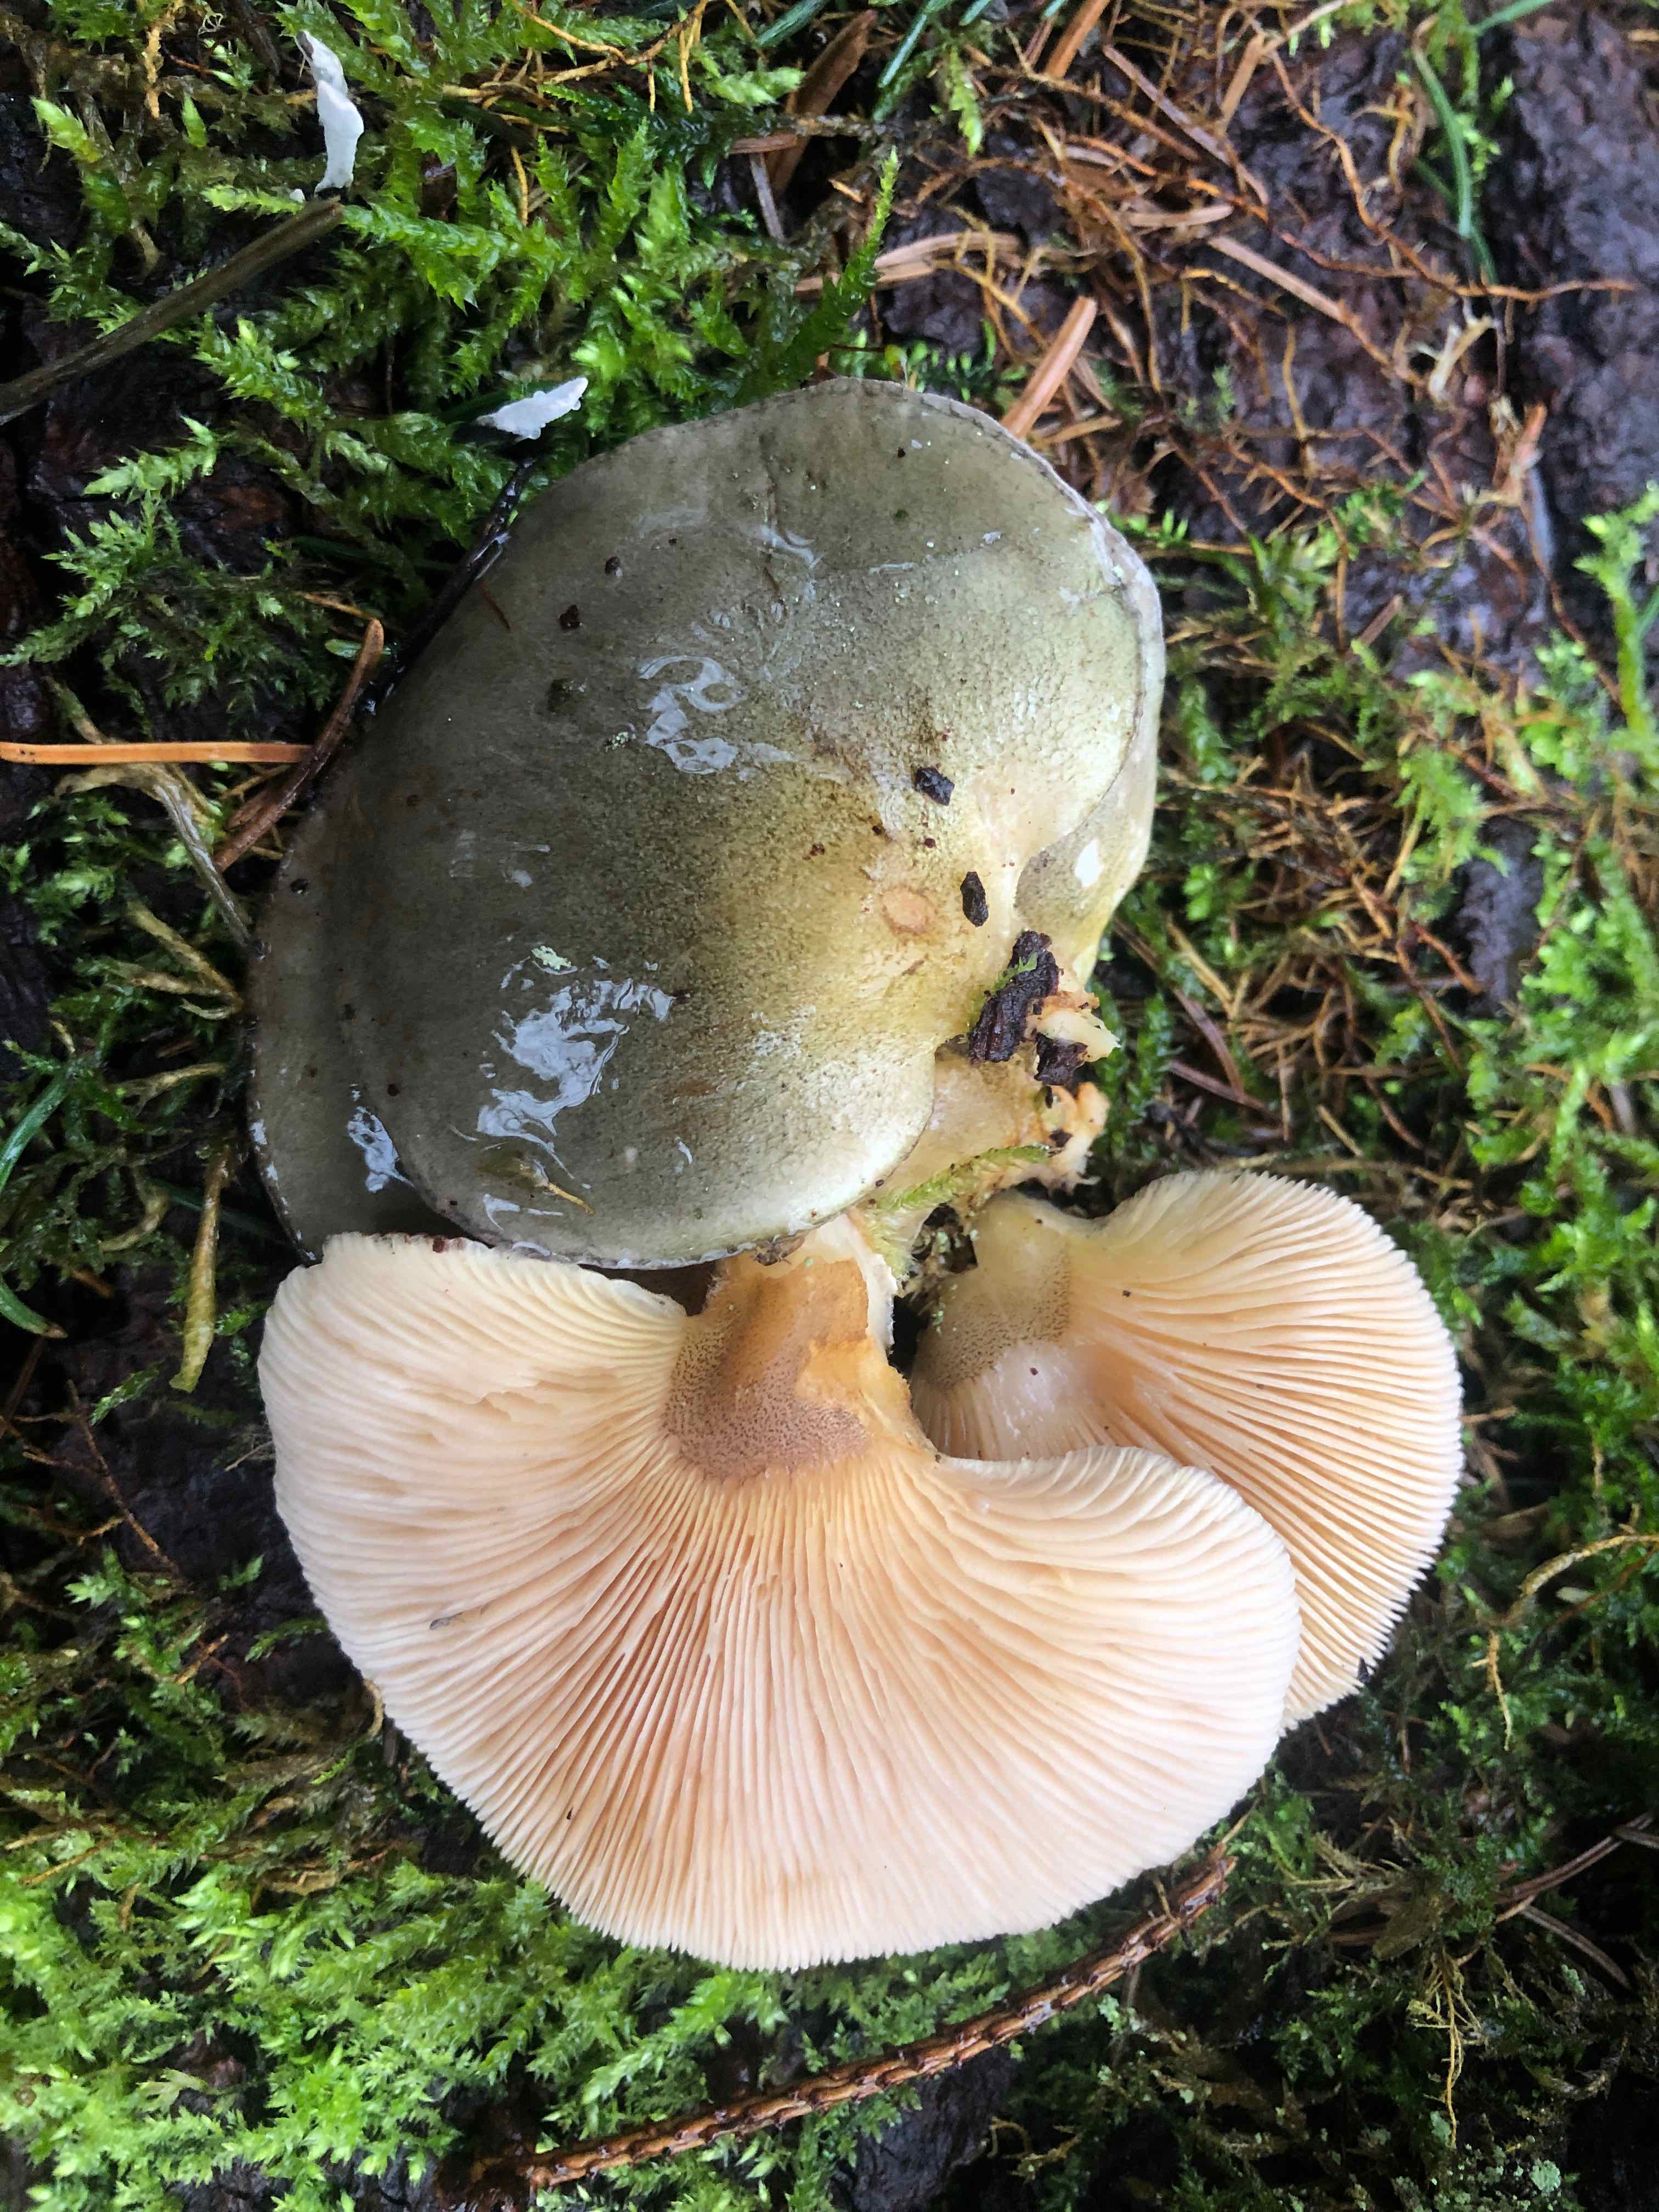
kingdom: Fungi
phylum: Basidiomycota
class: Agaricomycetes
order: Agaricales
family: Sarcomyxaceae
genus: Sarcomyxa
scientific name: Sarcomyxa serotina
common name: gummihat
